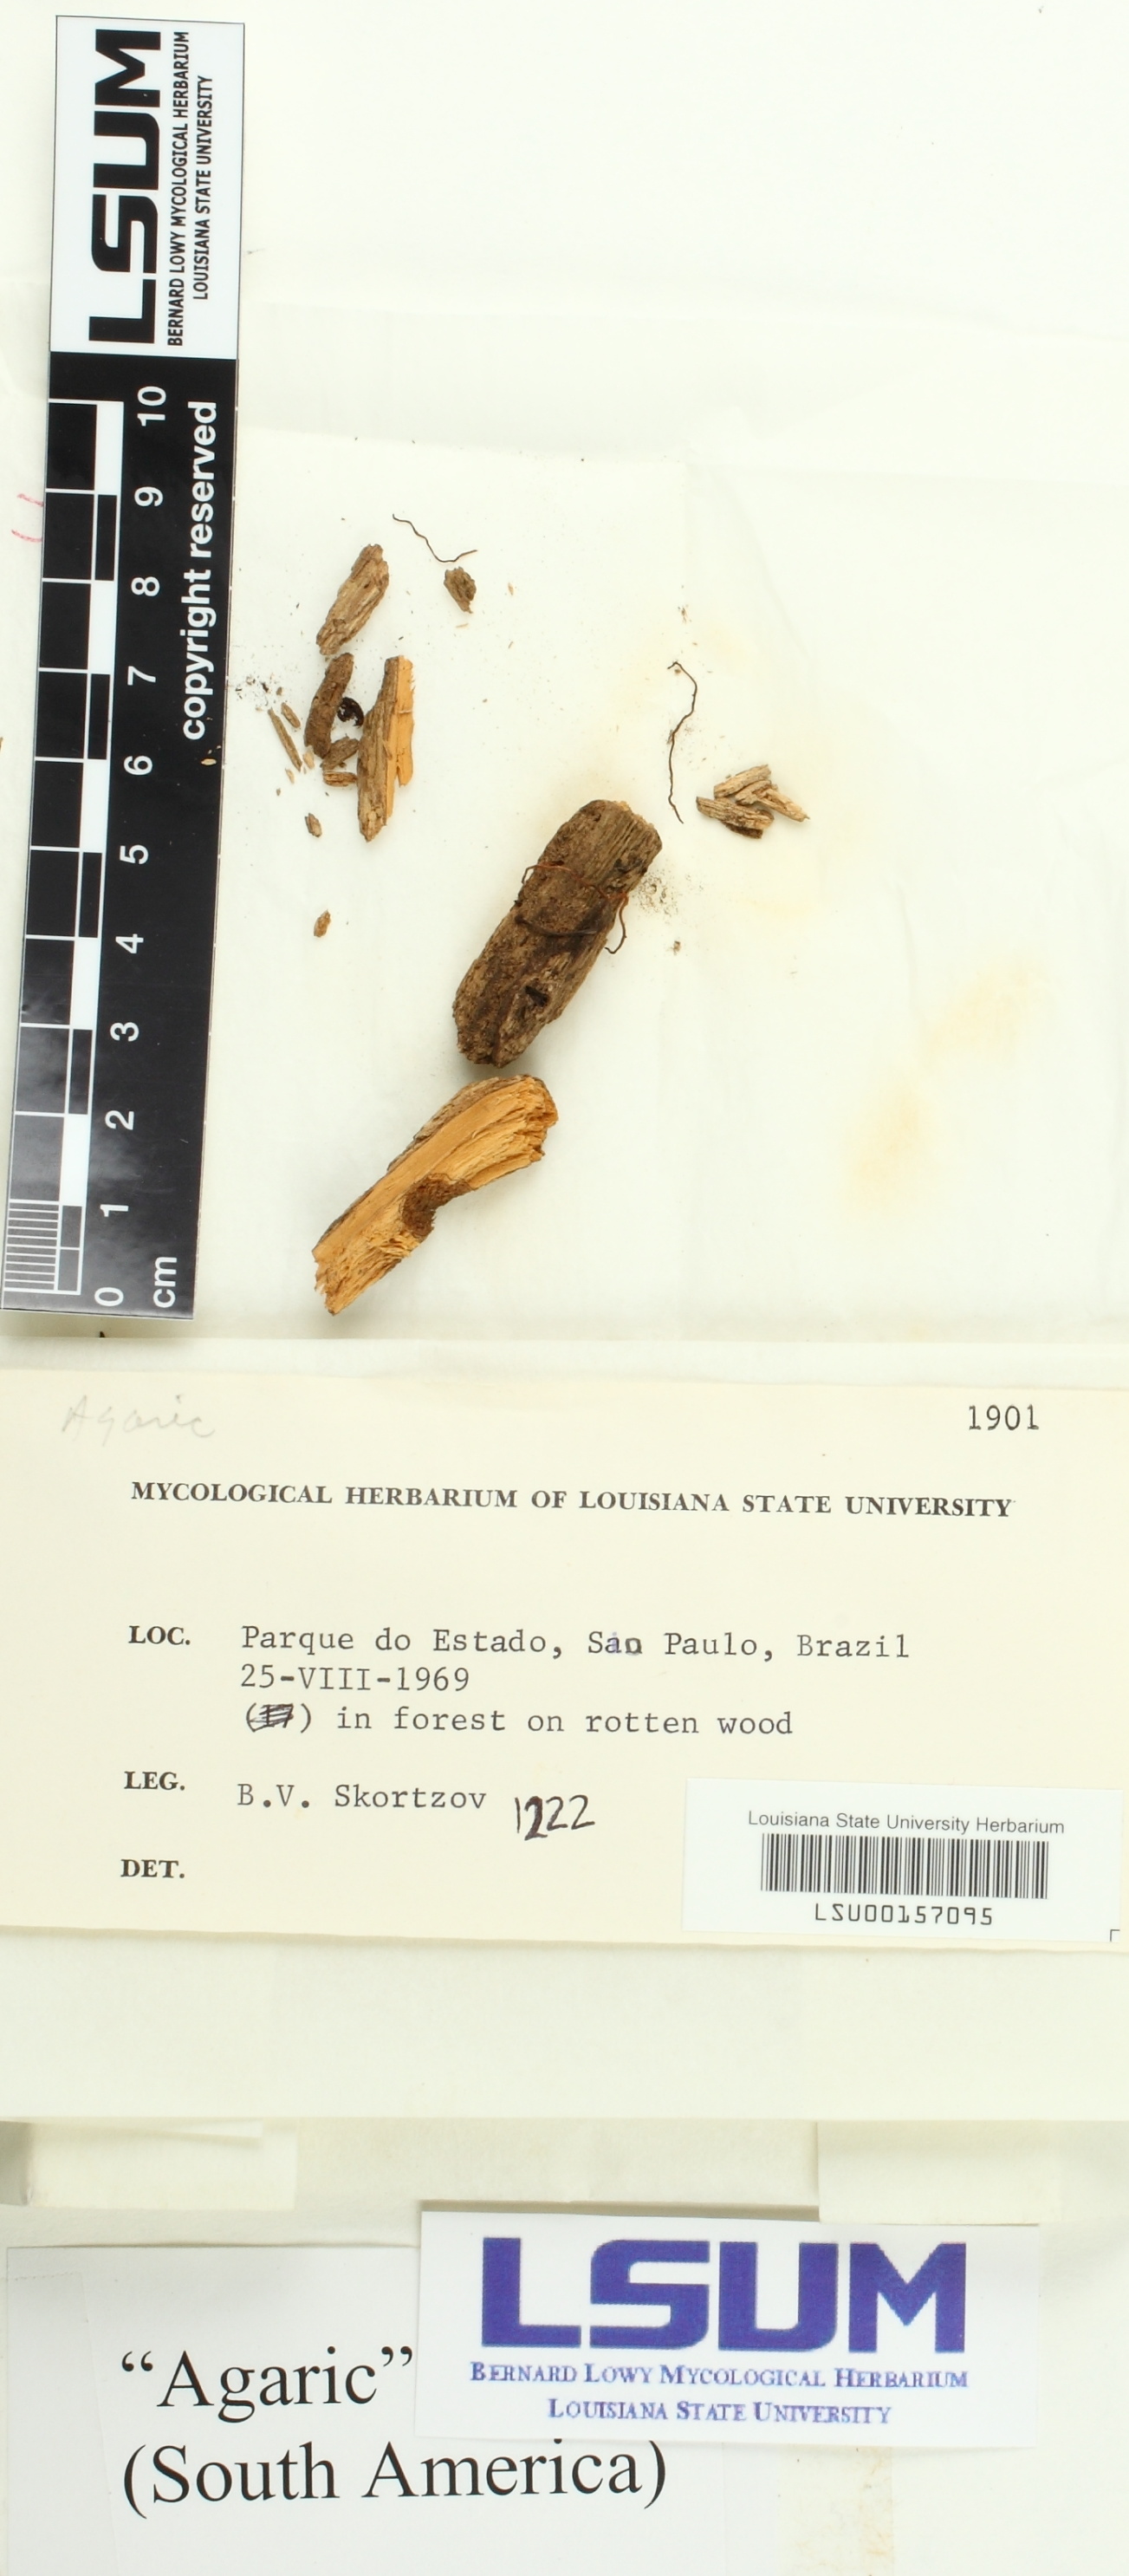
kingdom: Fungi
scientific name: Fungi
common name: Fungi
